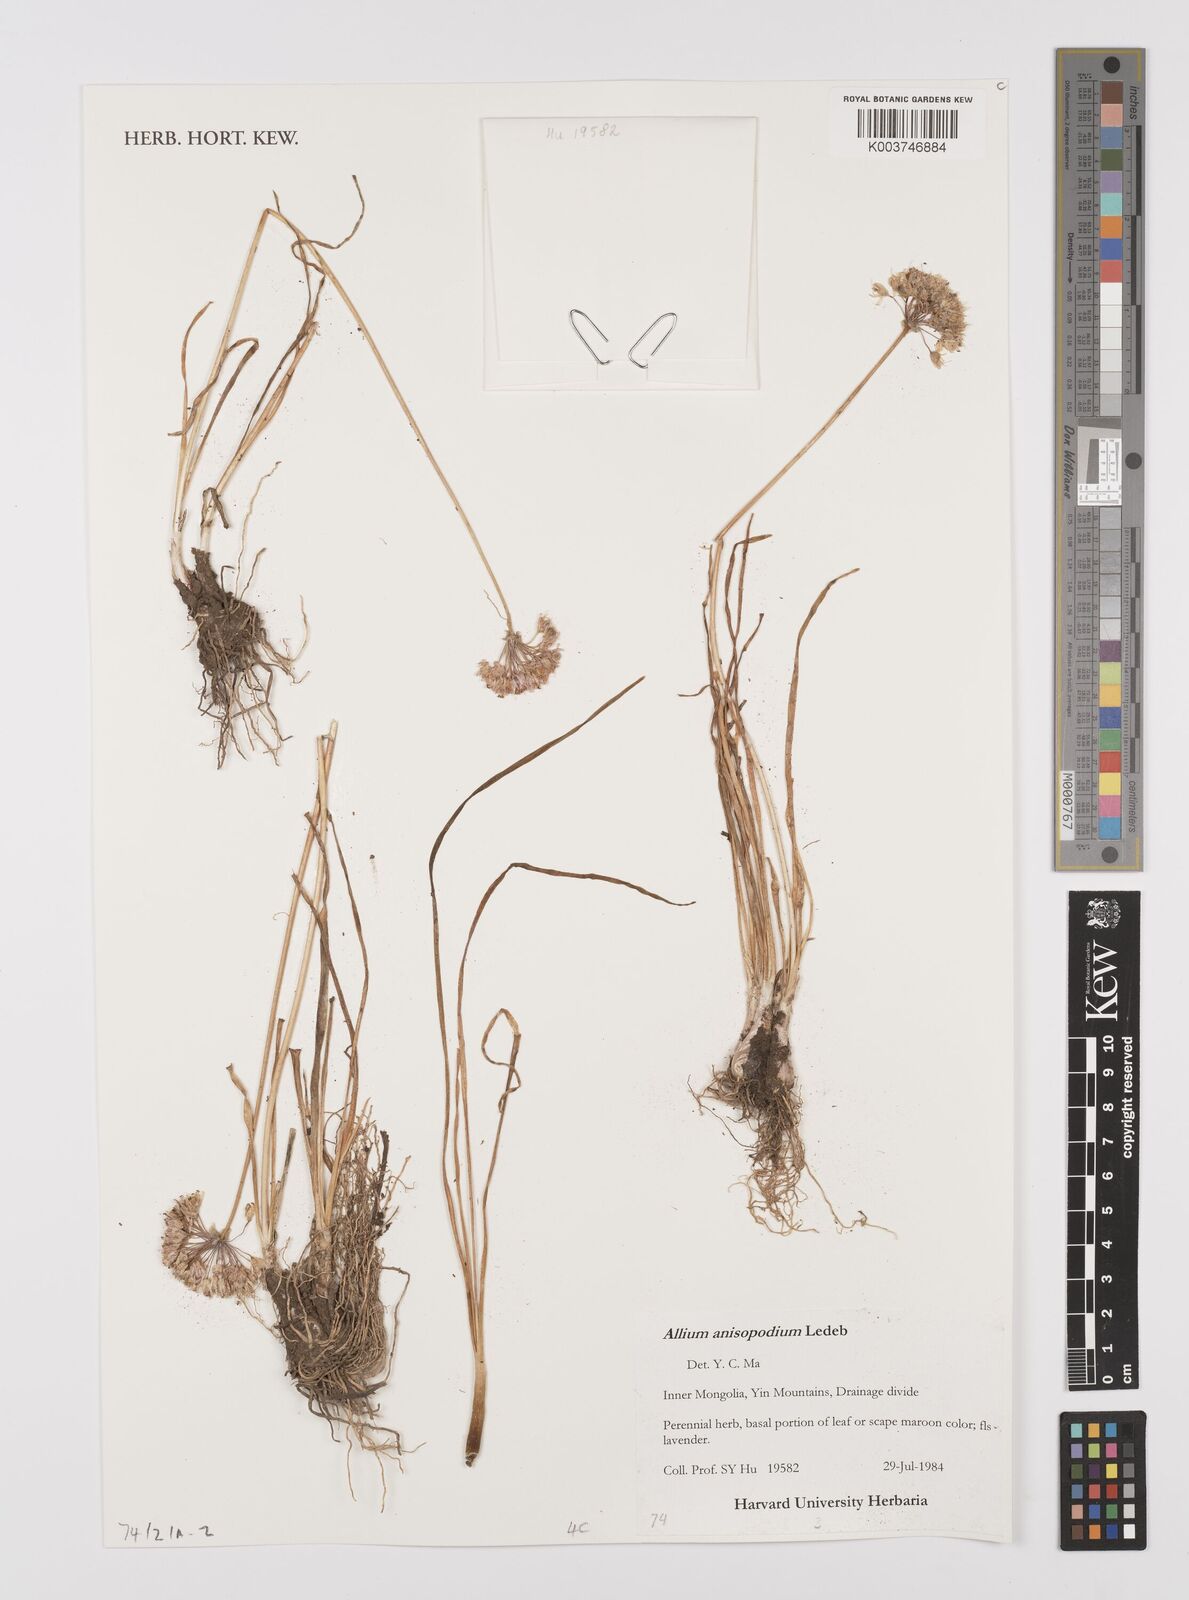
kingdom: Plantae
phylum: Tracheophyta
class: Liliopsida
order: Asparagales
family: Amaryllidaceae
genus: Allium
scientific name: Allium anisopodium
